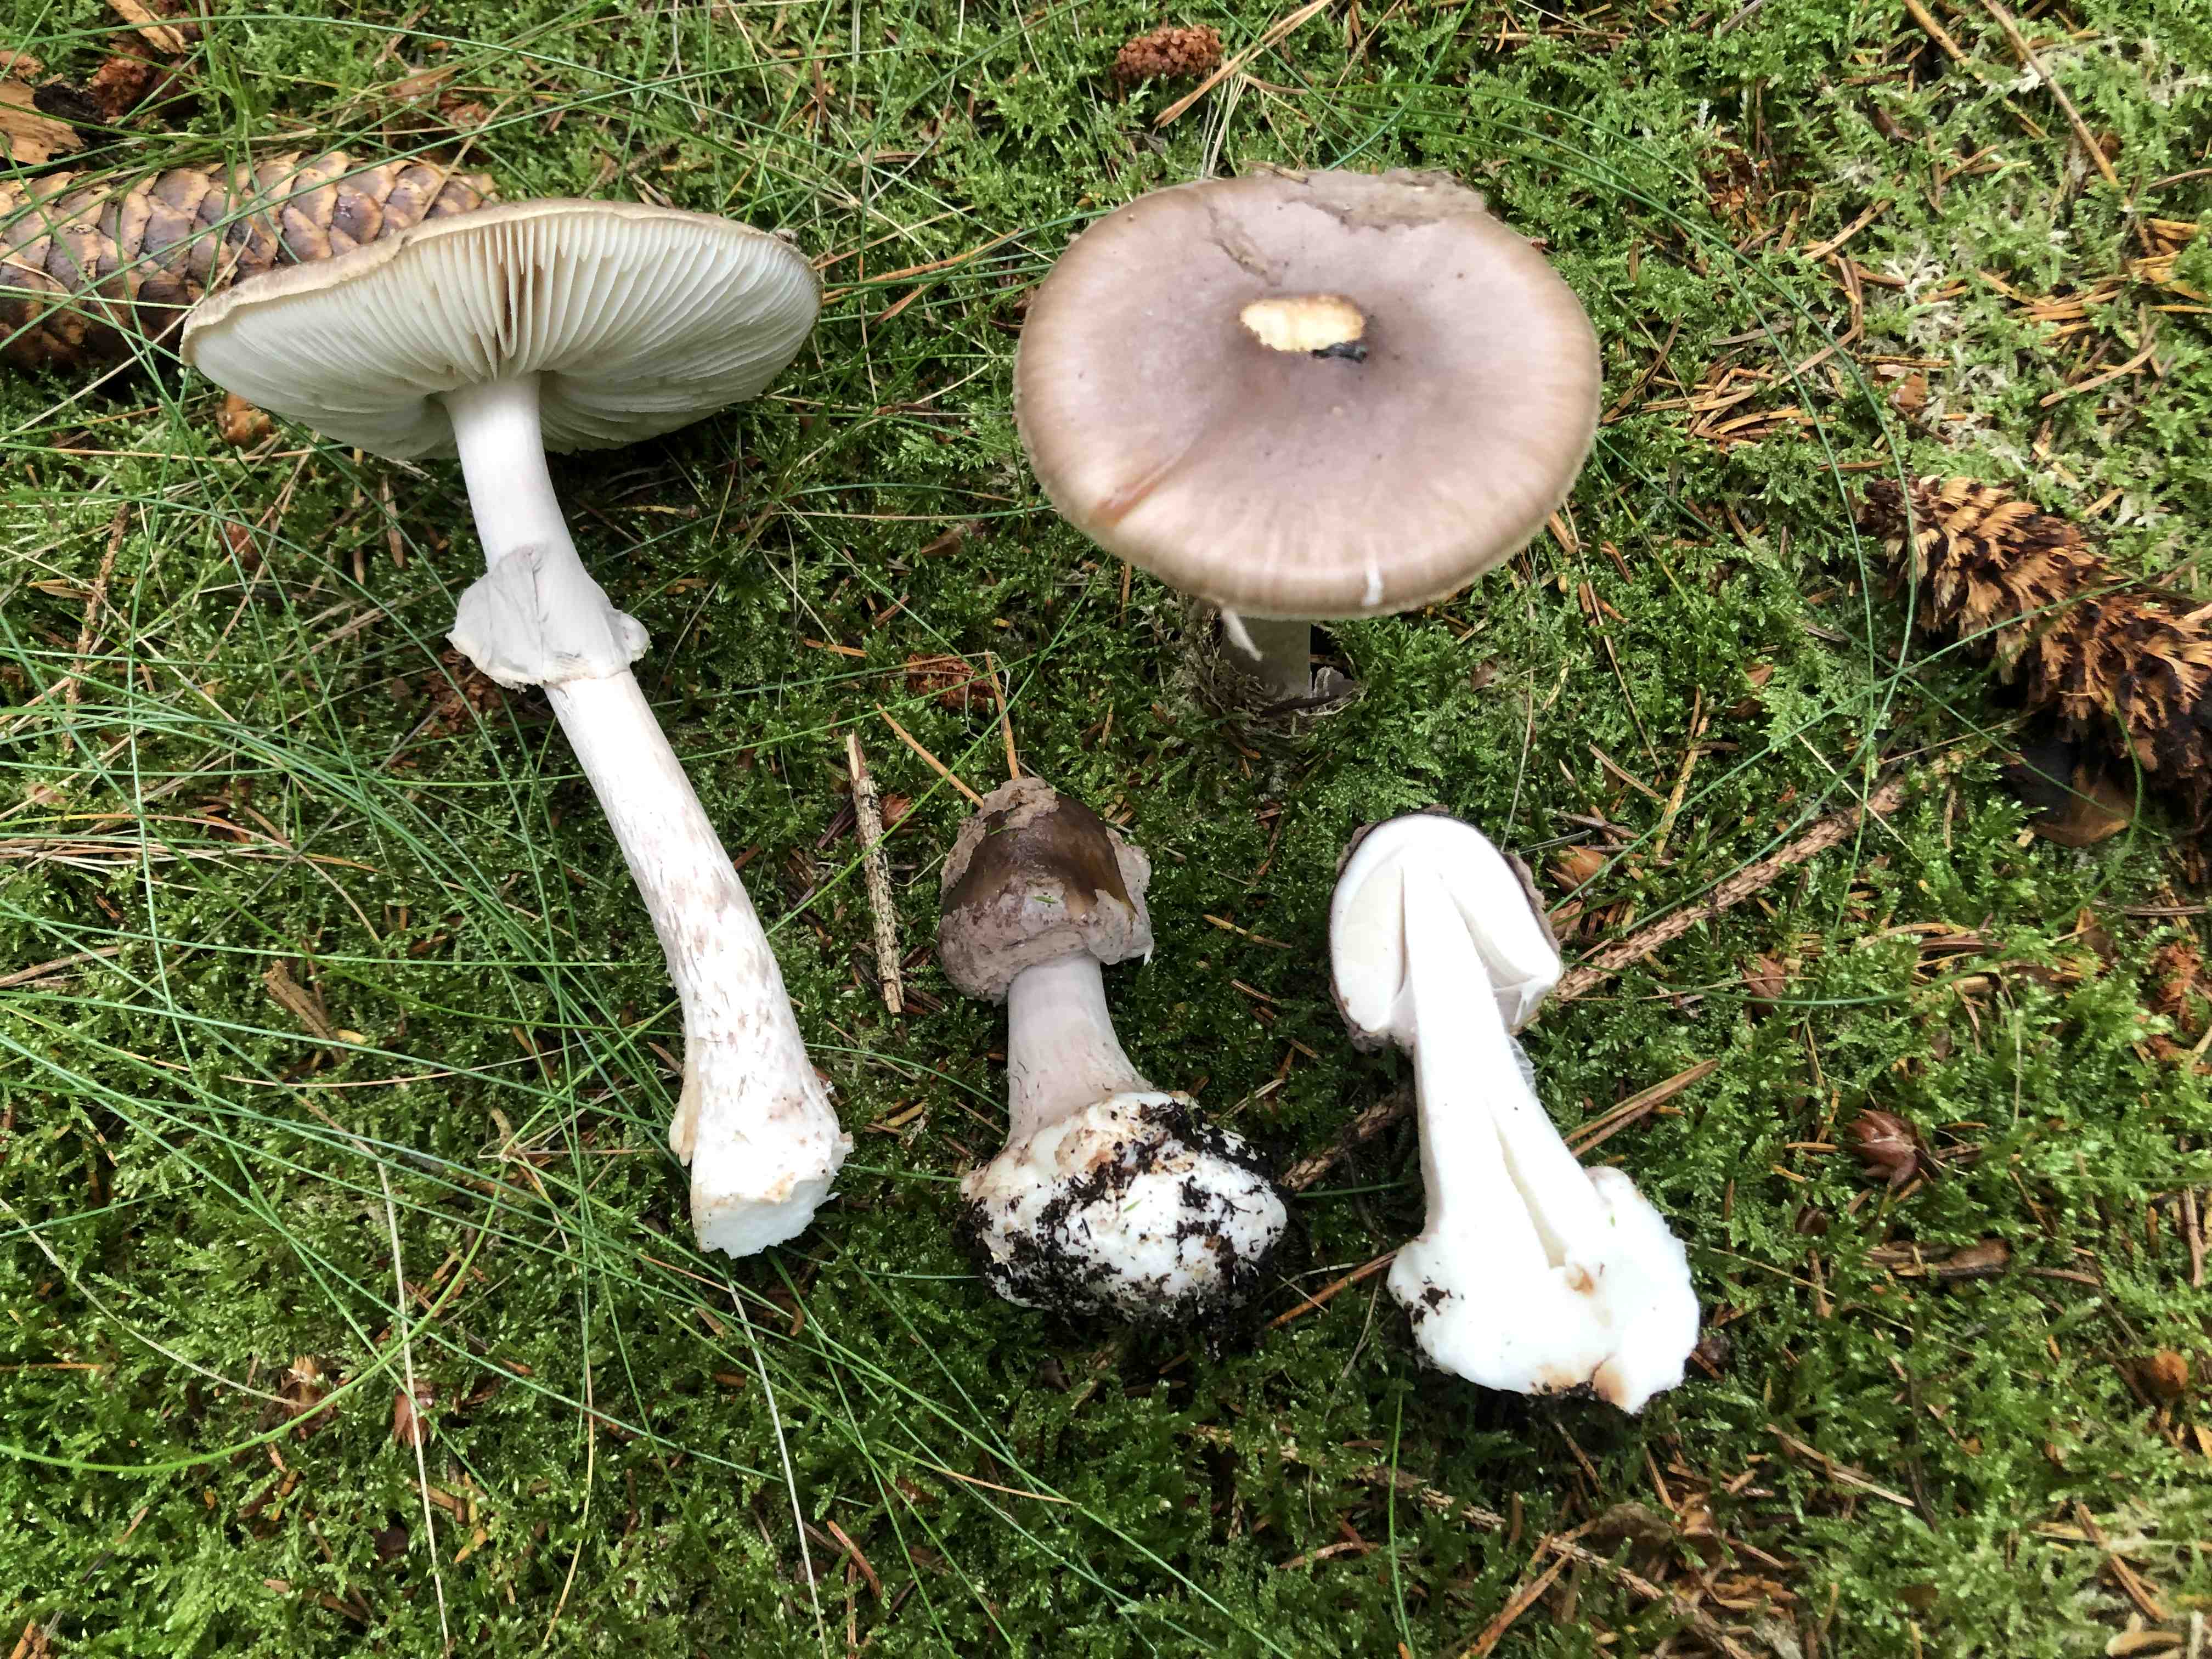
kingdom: Fungi
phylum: Basidiomycota
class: Agaricomycetes
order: Agaricales
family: Amanitaceae
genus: Amanita
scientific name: Amanita porphyria
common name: porfyr-fluesvamp
